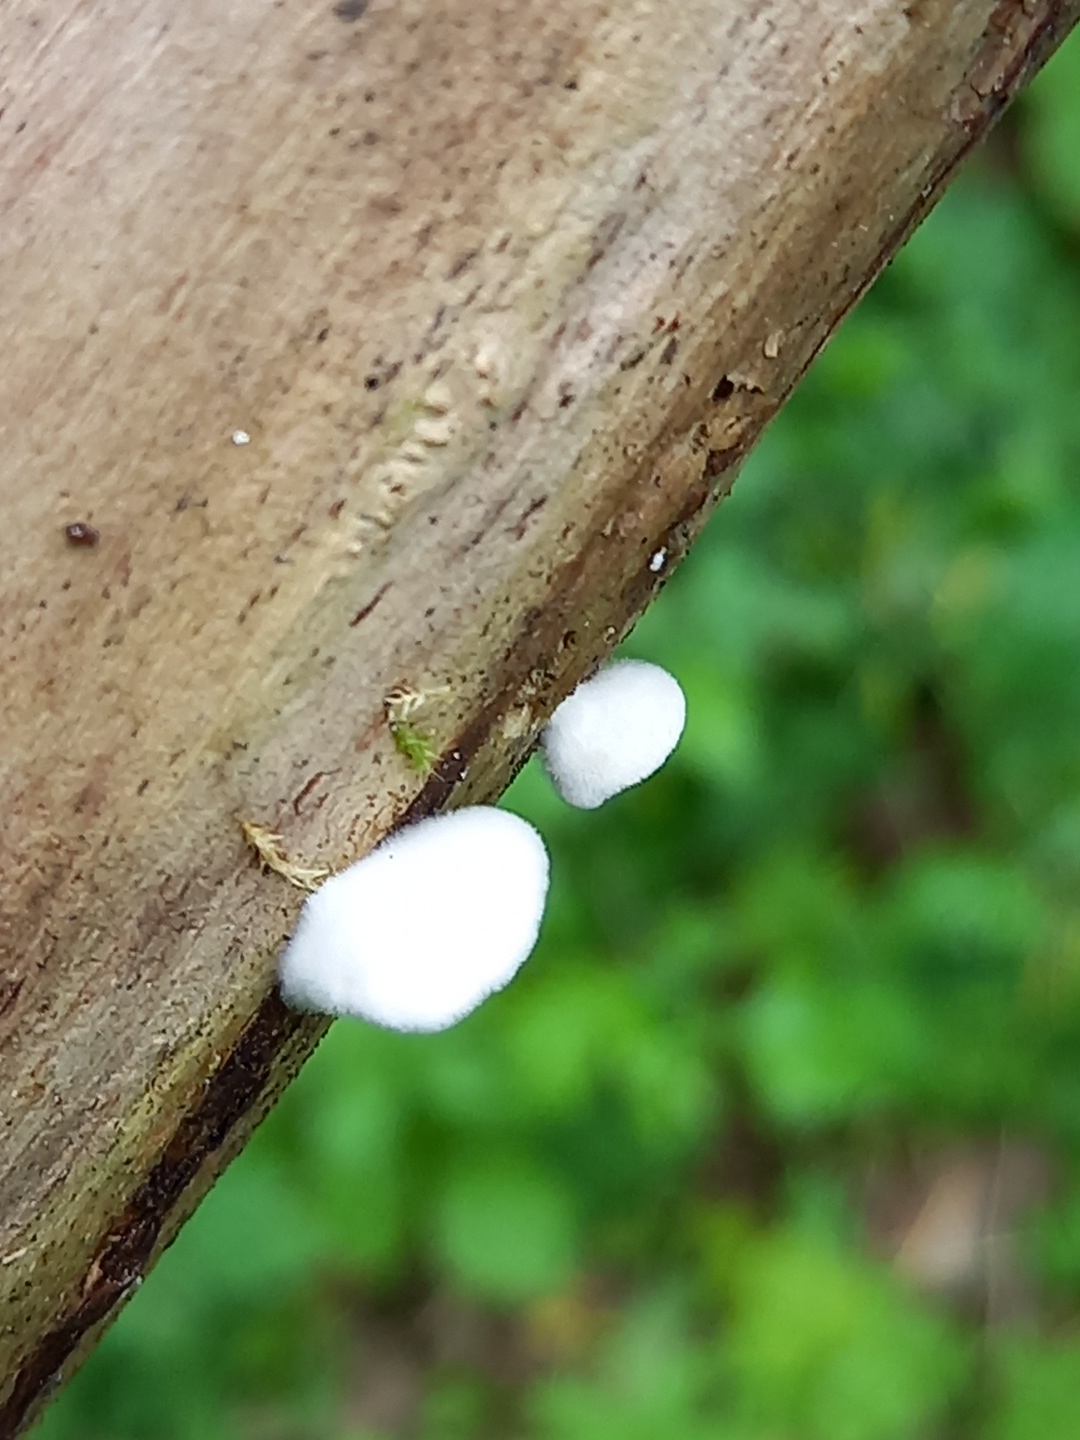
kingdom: Fungi
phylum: Basidiomycota
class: Agaricomycetes
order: Agaricales
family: Crepidotaceae
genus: Crepidotus
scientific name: Crepidotus
